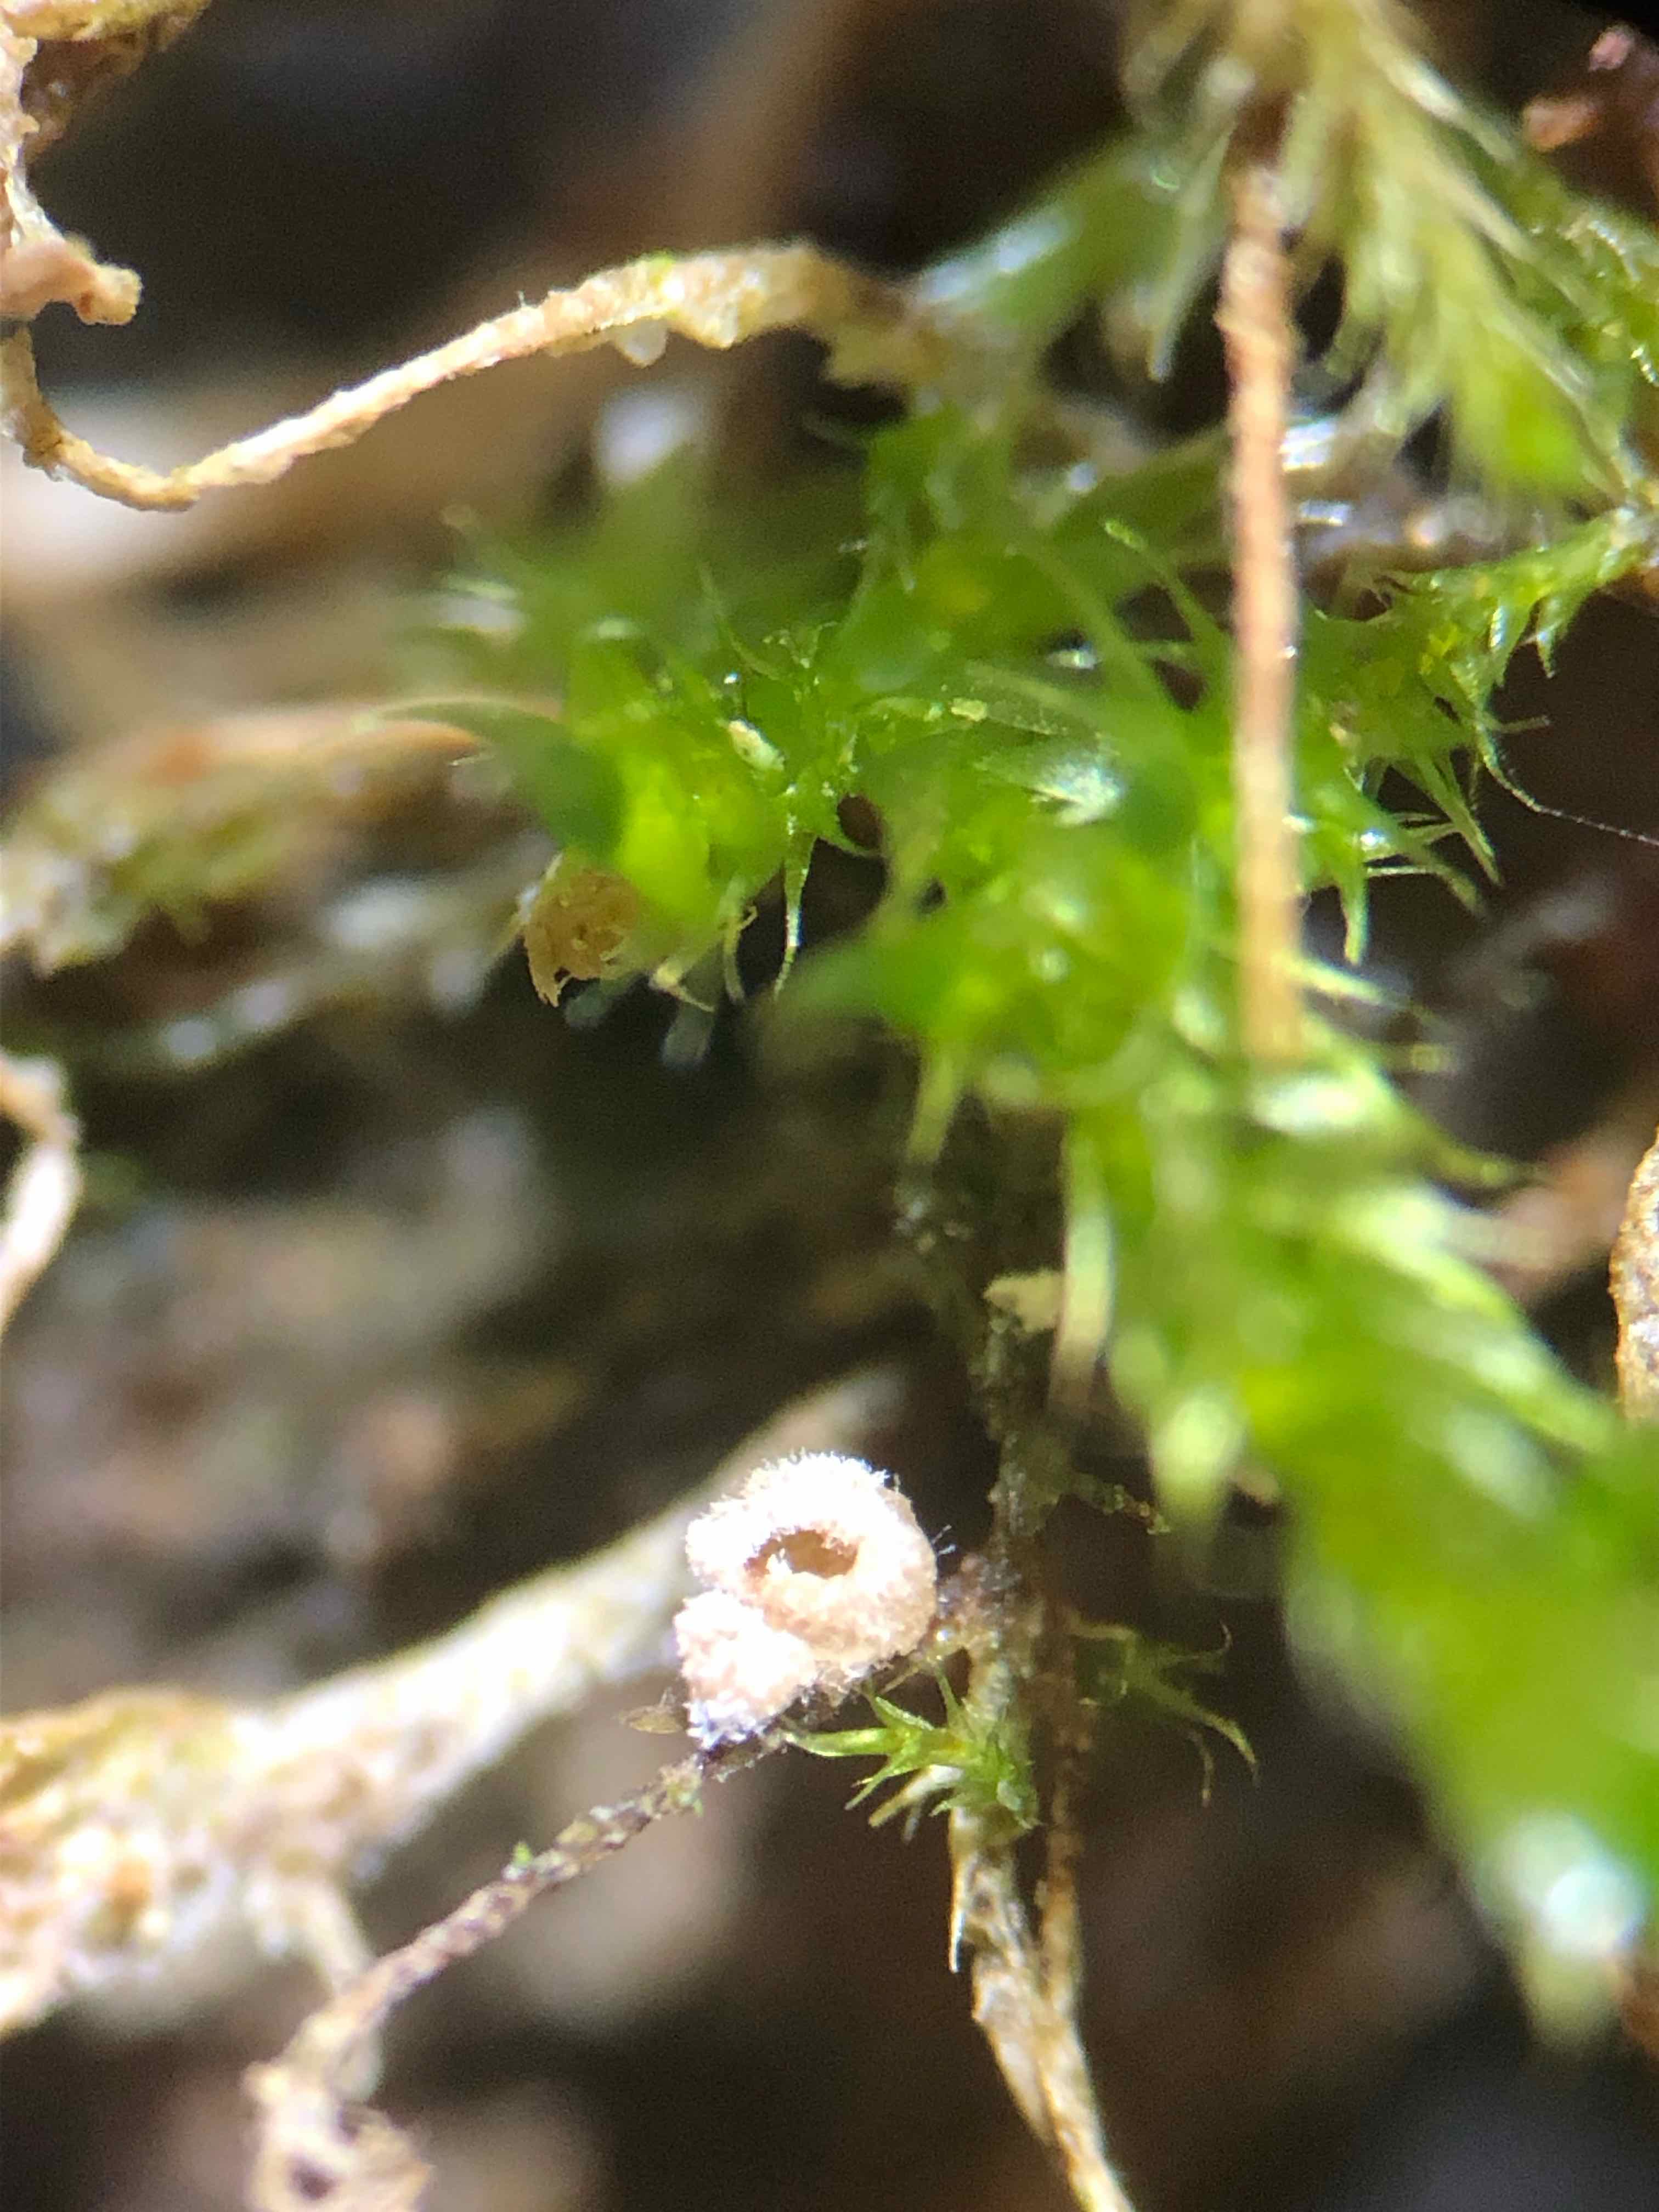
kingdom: Fungi
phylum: Basidiomycota
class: Agaricomycetes
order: Agaricales
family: Chromocyphellaceae
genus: Chromocyphella
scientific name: Chromocyphella muscicola
